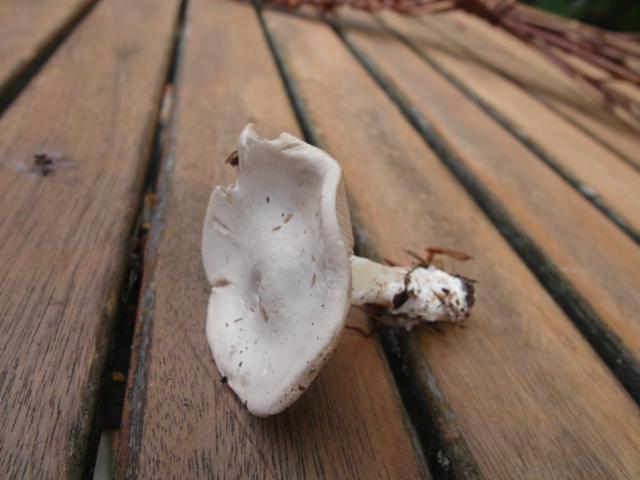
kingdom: Fungi
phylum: Basidiomycota
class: Agaricomycetes
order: Agaricales
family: Entolomataceae
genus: Clitopilus
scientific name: Clitopilus prunulus
